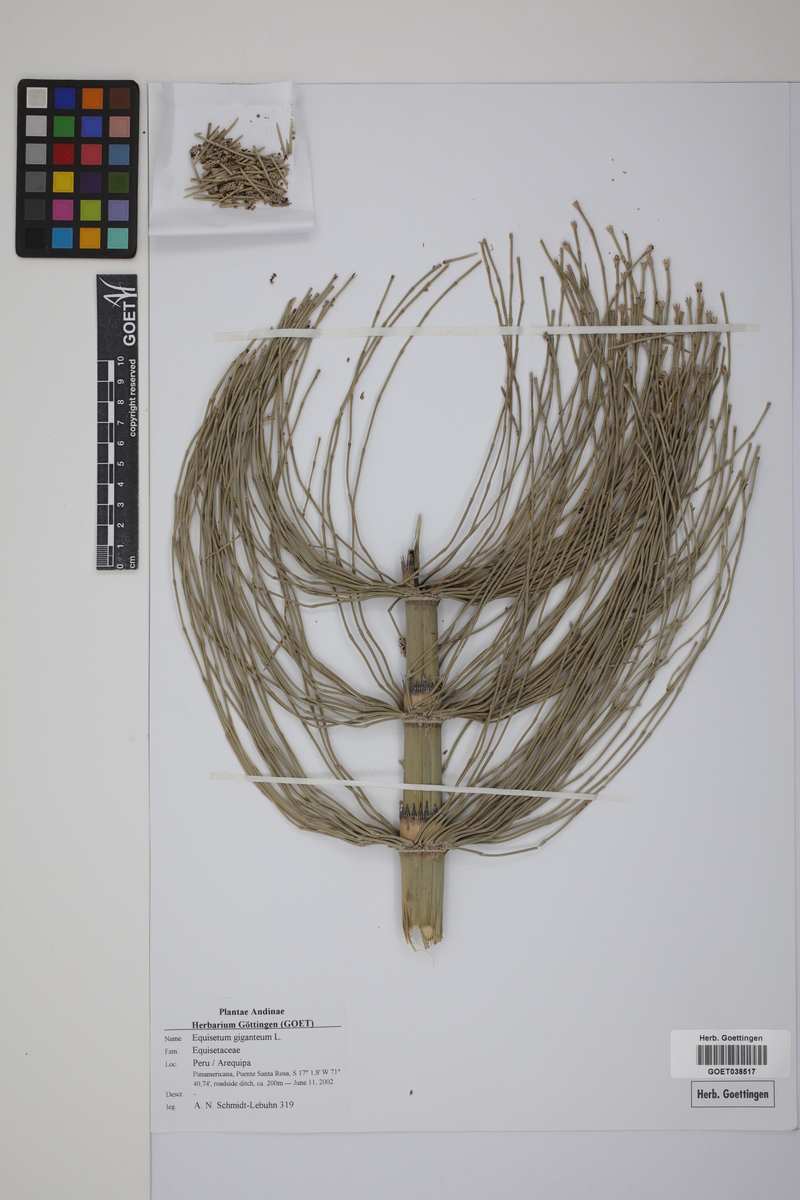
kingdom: Plantae
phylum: Tracheophyta
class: Polypodiopsida
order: Equisetales
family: Equisetaceae
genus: Equisetum
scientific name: Equisetum giganteum
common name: Giant horsetail
